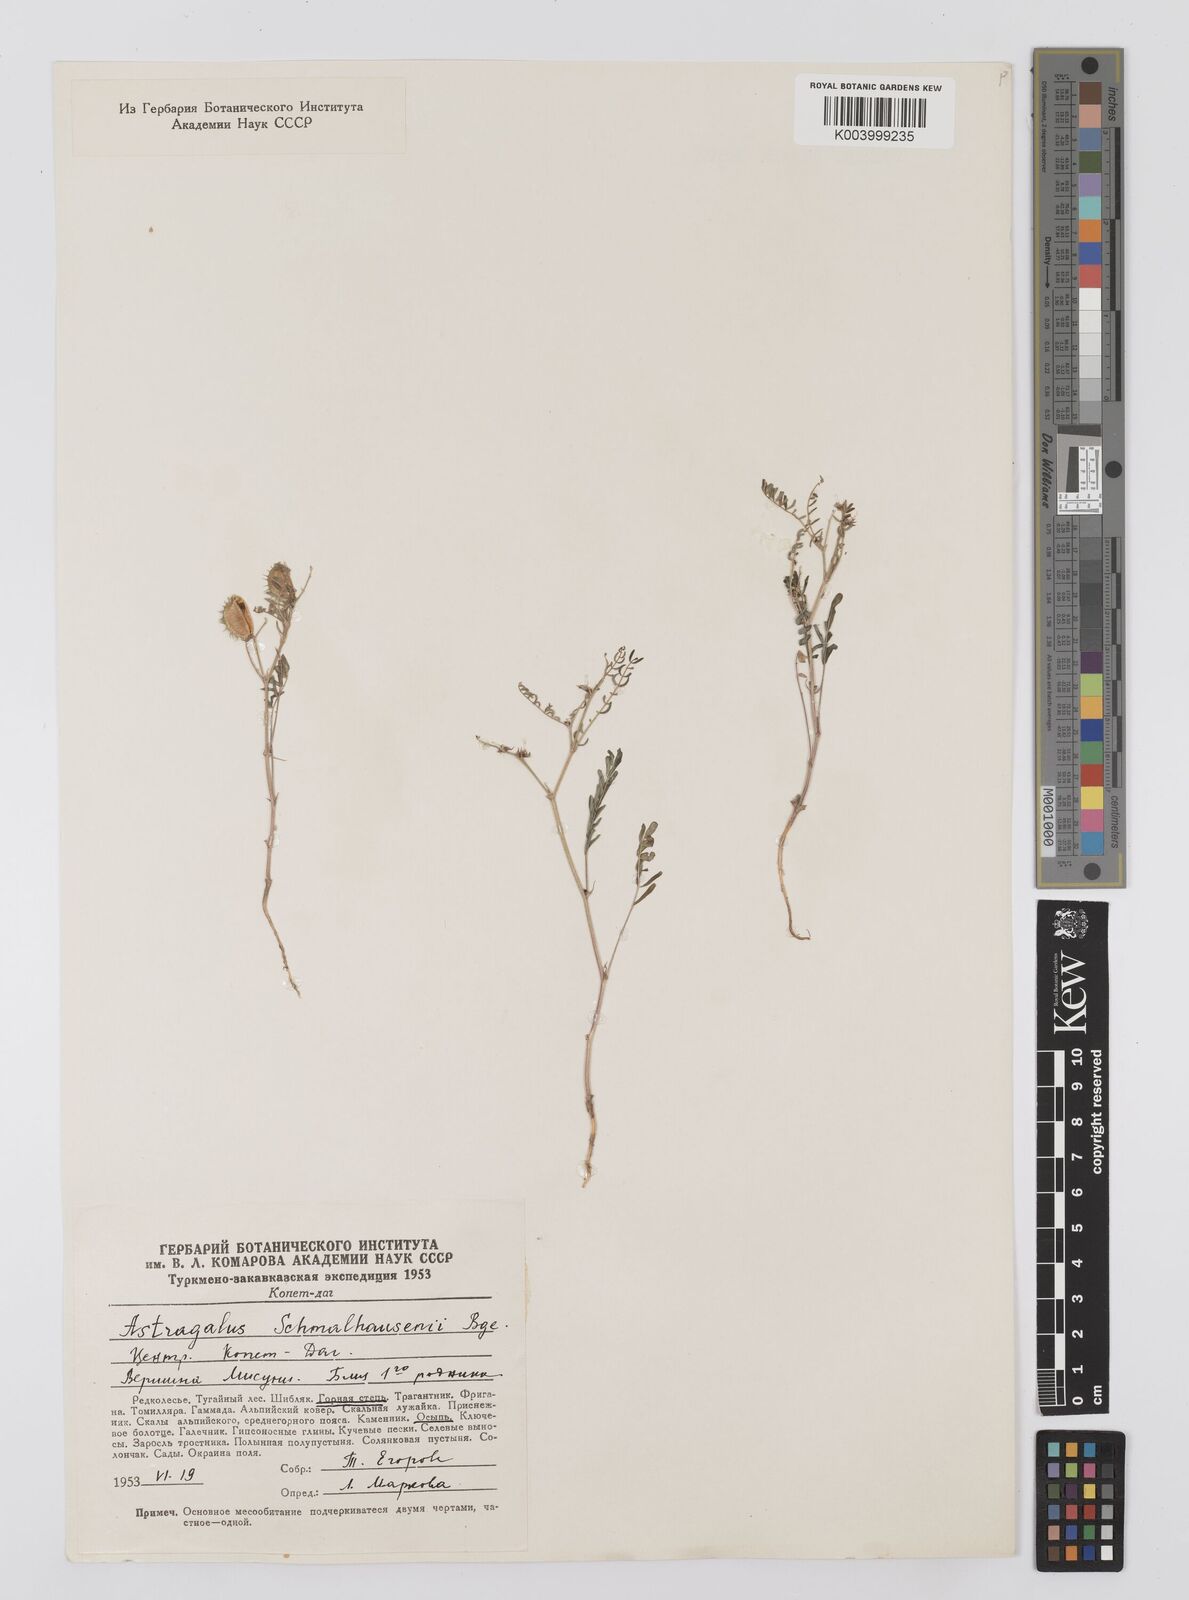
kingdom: Plantae
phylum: Tracheophyta
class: Magnoliopsida
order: Fabales
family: Fabaceae
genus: Astragalus
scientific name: Astragalus schmalhausenii
